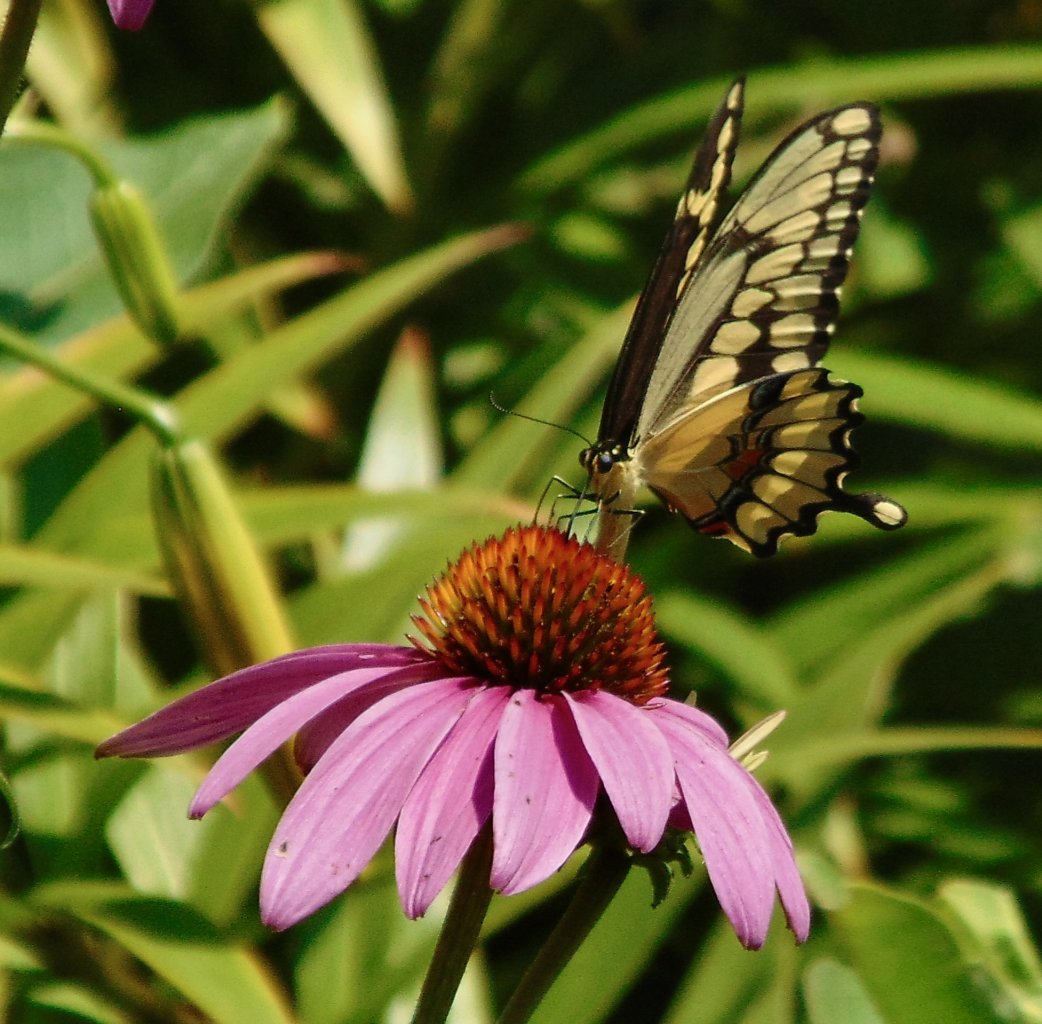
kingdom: Animalia
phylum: Arthropoda
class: Insecta
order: Lepidoptera
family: Papilionidae
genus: Papilio
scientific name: Papilio cresphontes
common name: Eastern Giant Swallowtail
